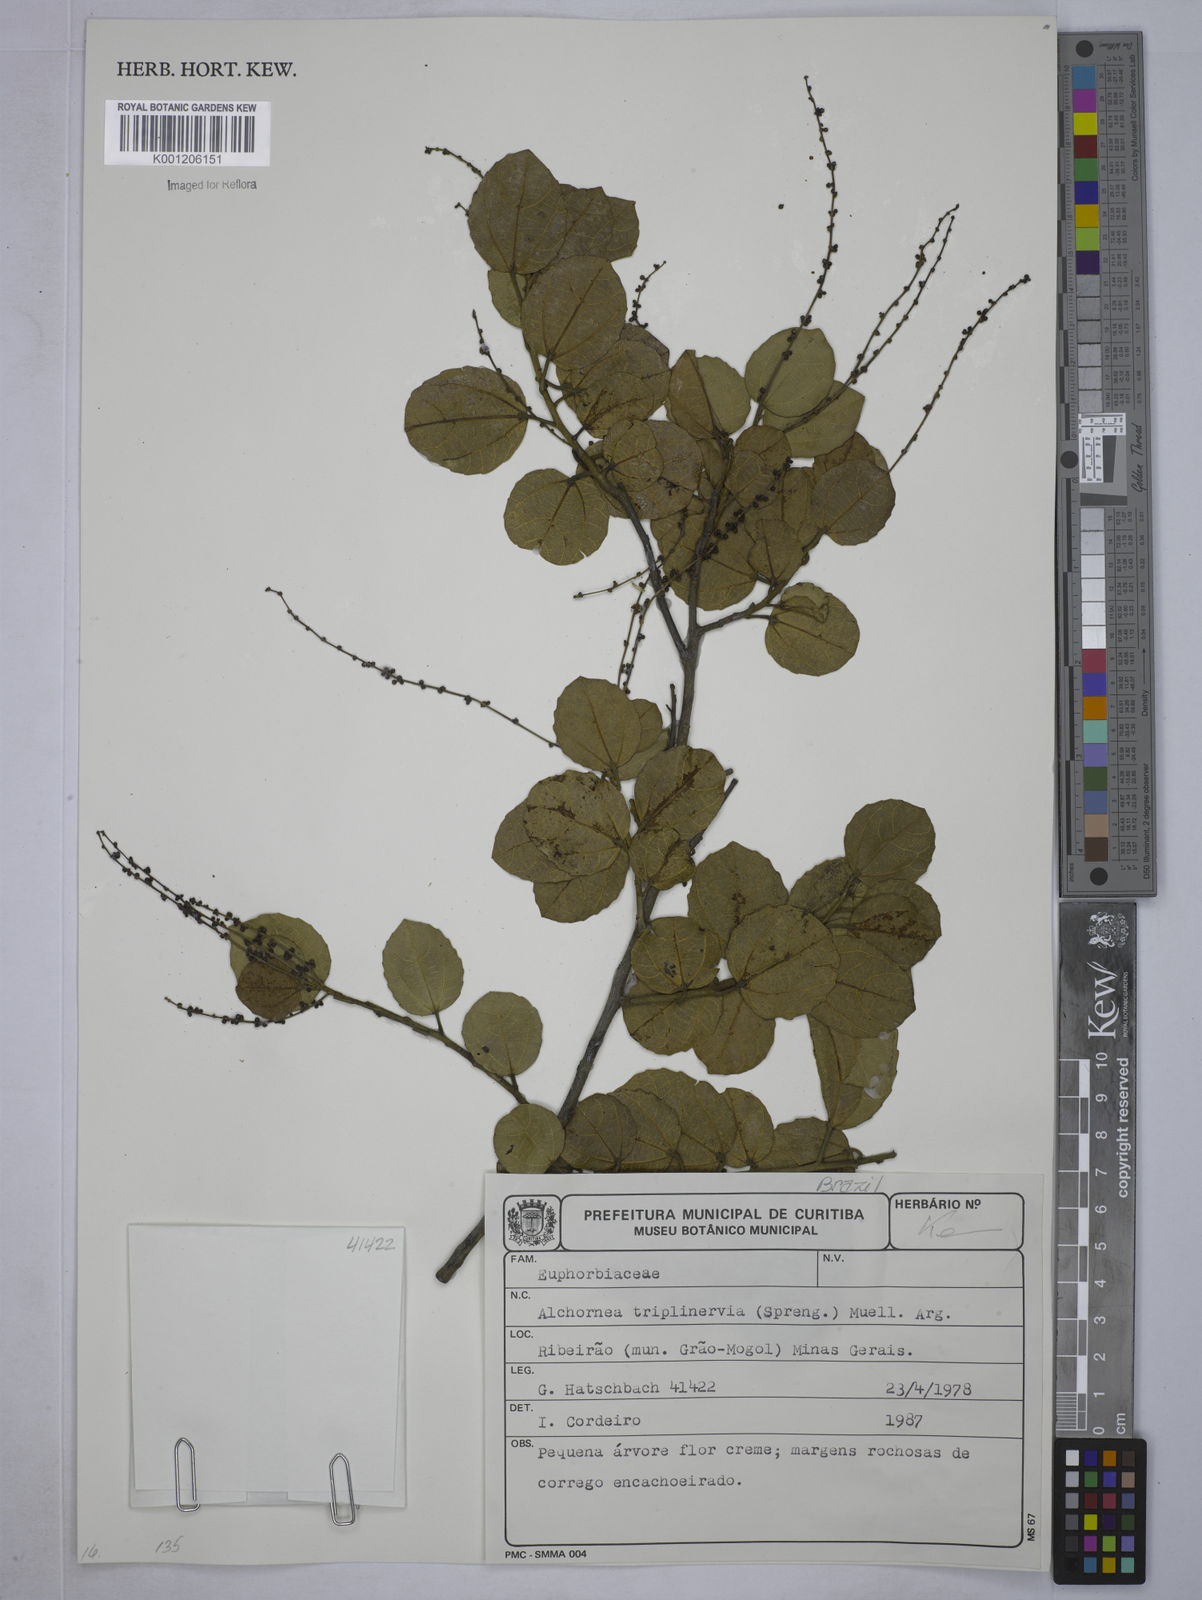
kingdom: Plantae
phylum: Tracheophyta
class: Magnoliopsida
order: Malpighiales
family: Euphorbiaceae
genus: Alchornea
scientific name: Alchornea
